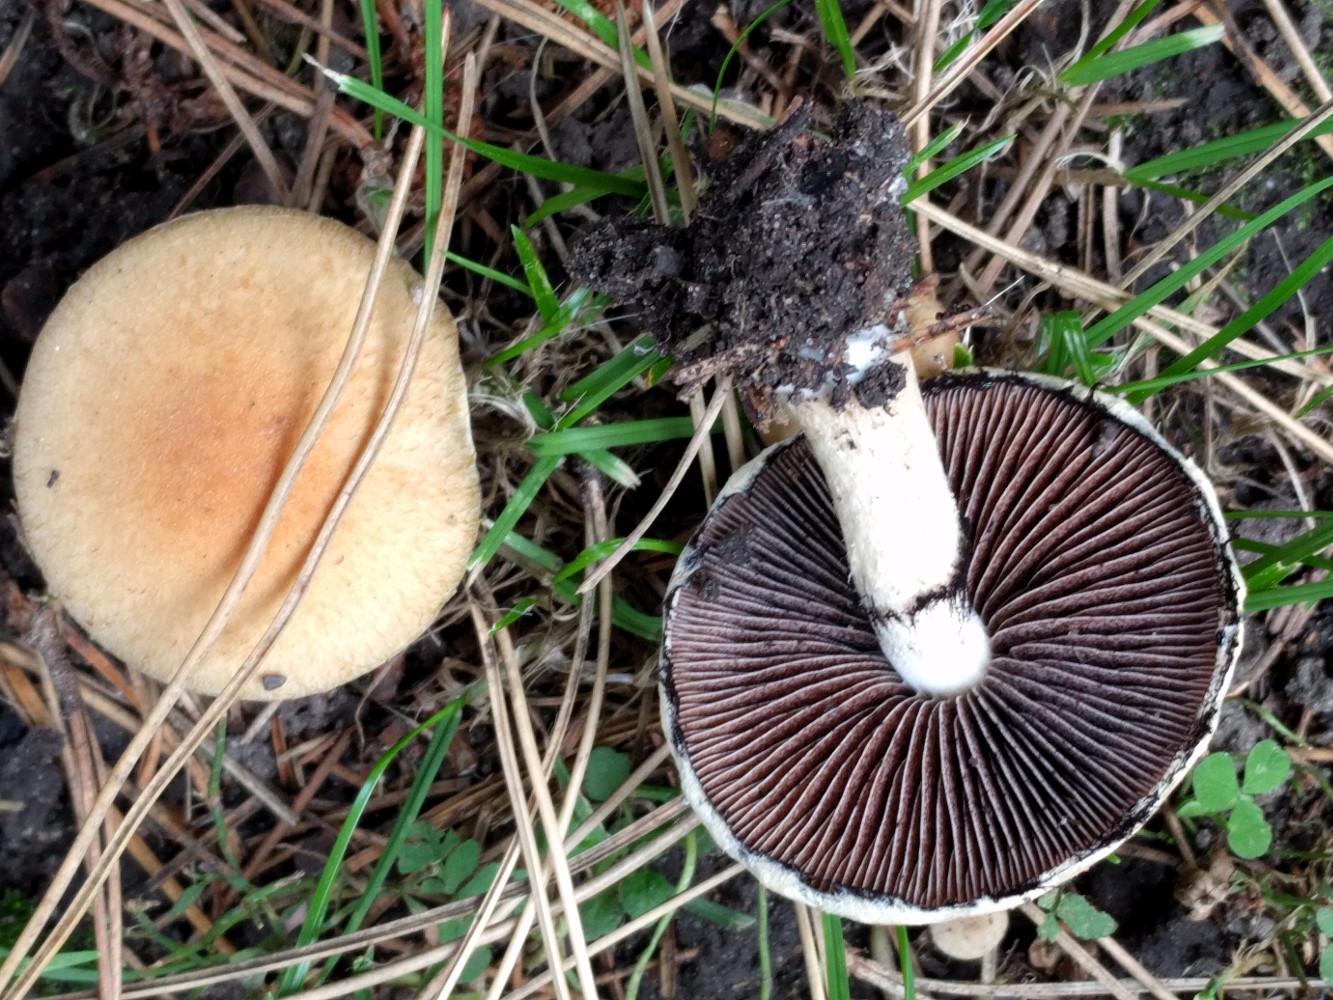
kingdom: Fungi
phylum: Basidiomycota
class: Agaricomycetes
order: Agaricales
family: Psathyrellaceae
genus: Lacrymaria
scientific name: Lacrymaria lacrymabunda
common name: grædende mørkhat
